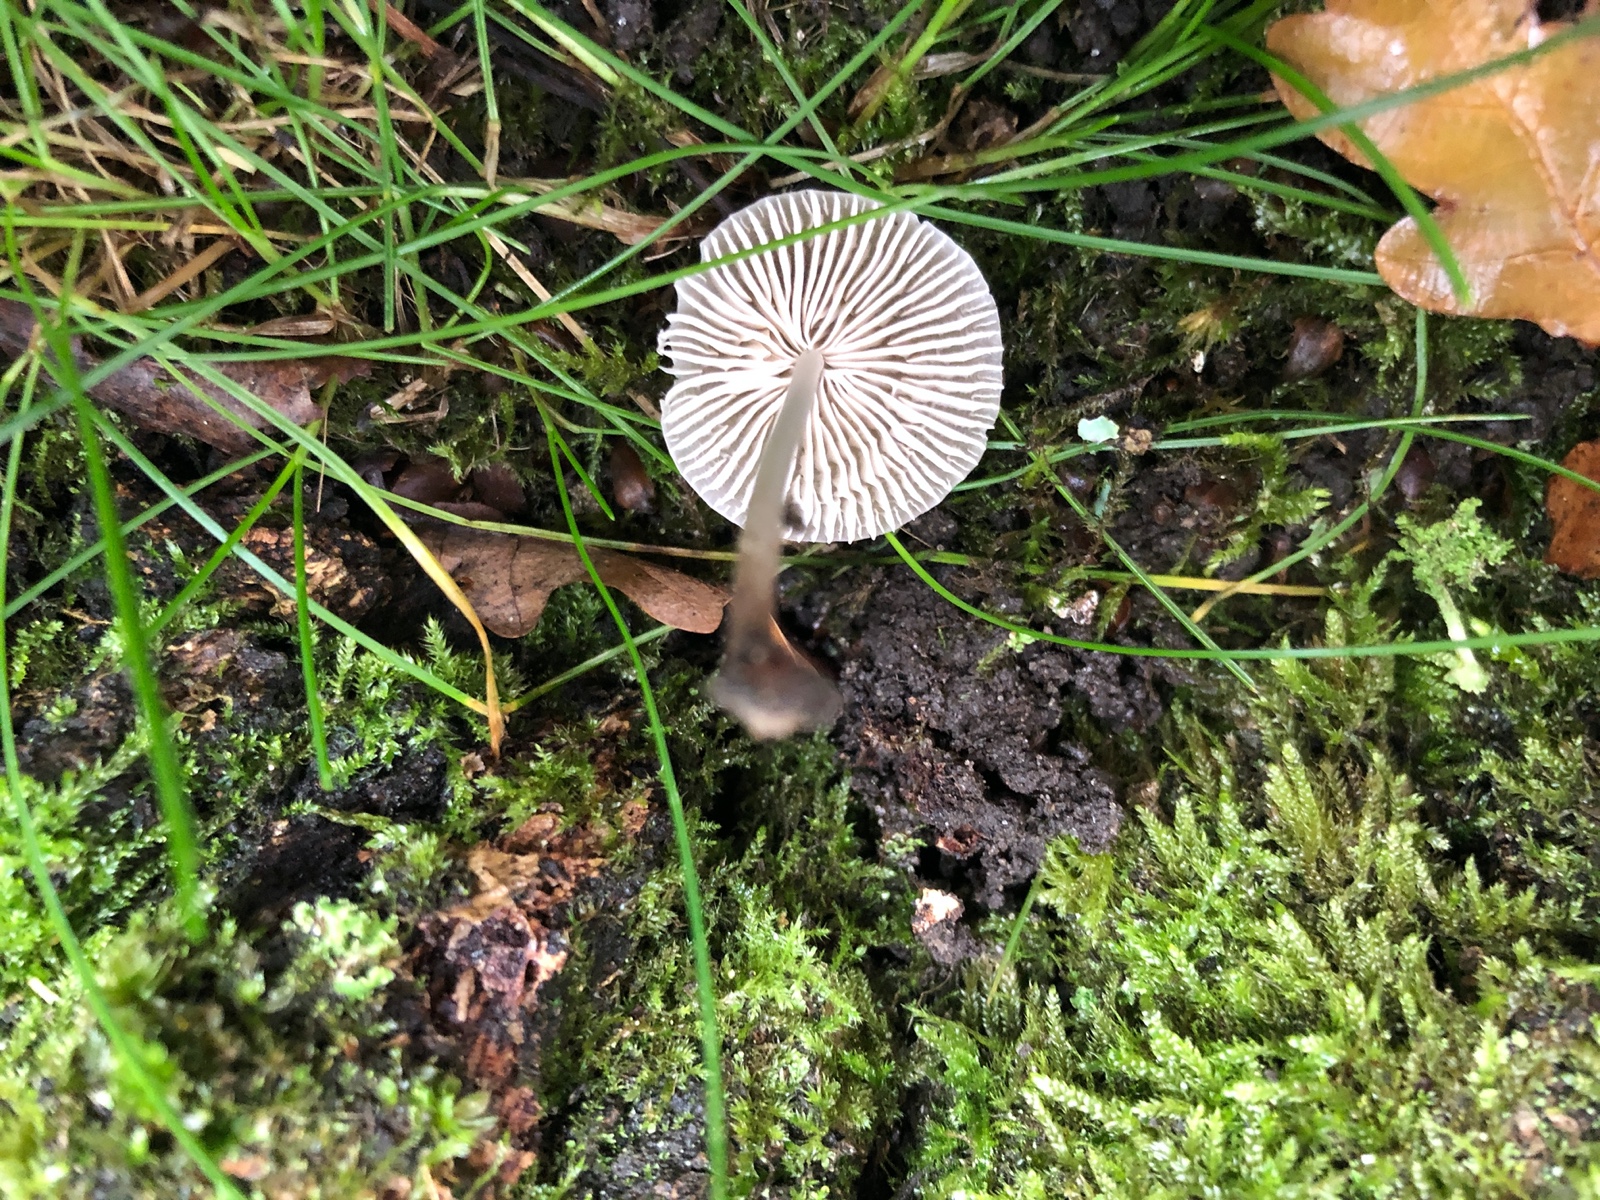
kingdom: Fungi
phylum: Basidiomycota
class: Agaricomycetes
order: Agaricales
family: Mycenaceae
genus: Mycena
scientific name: Mycena galericulata
